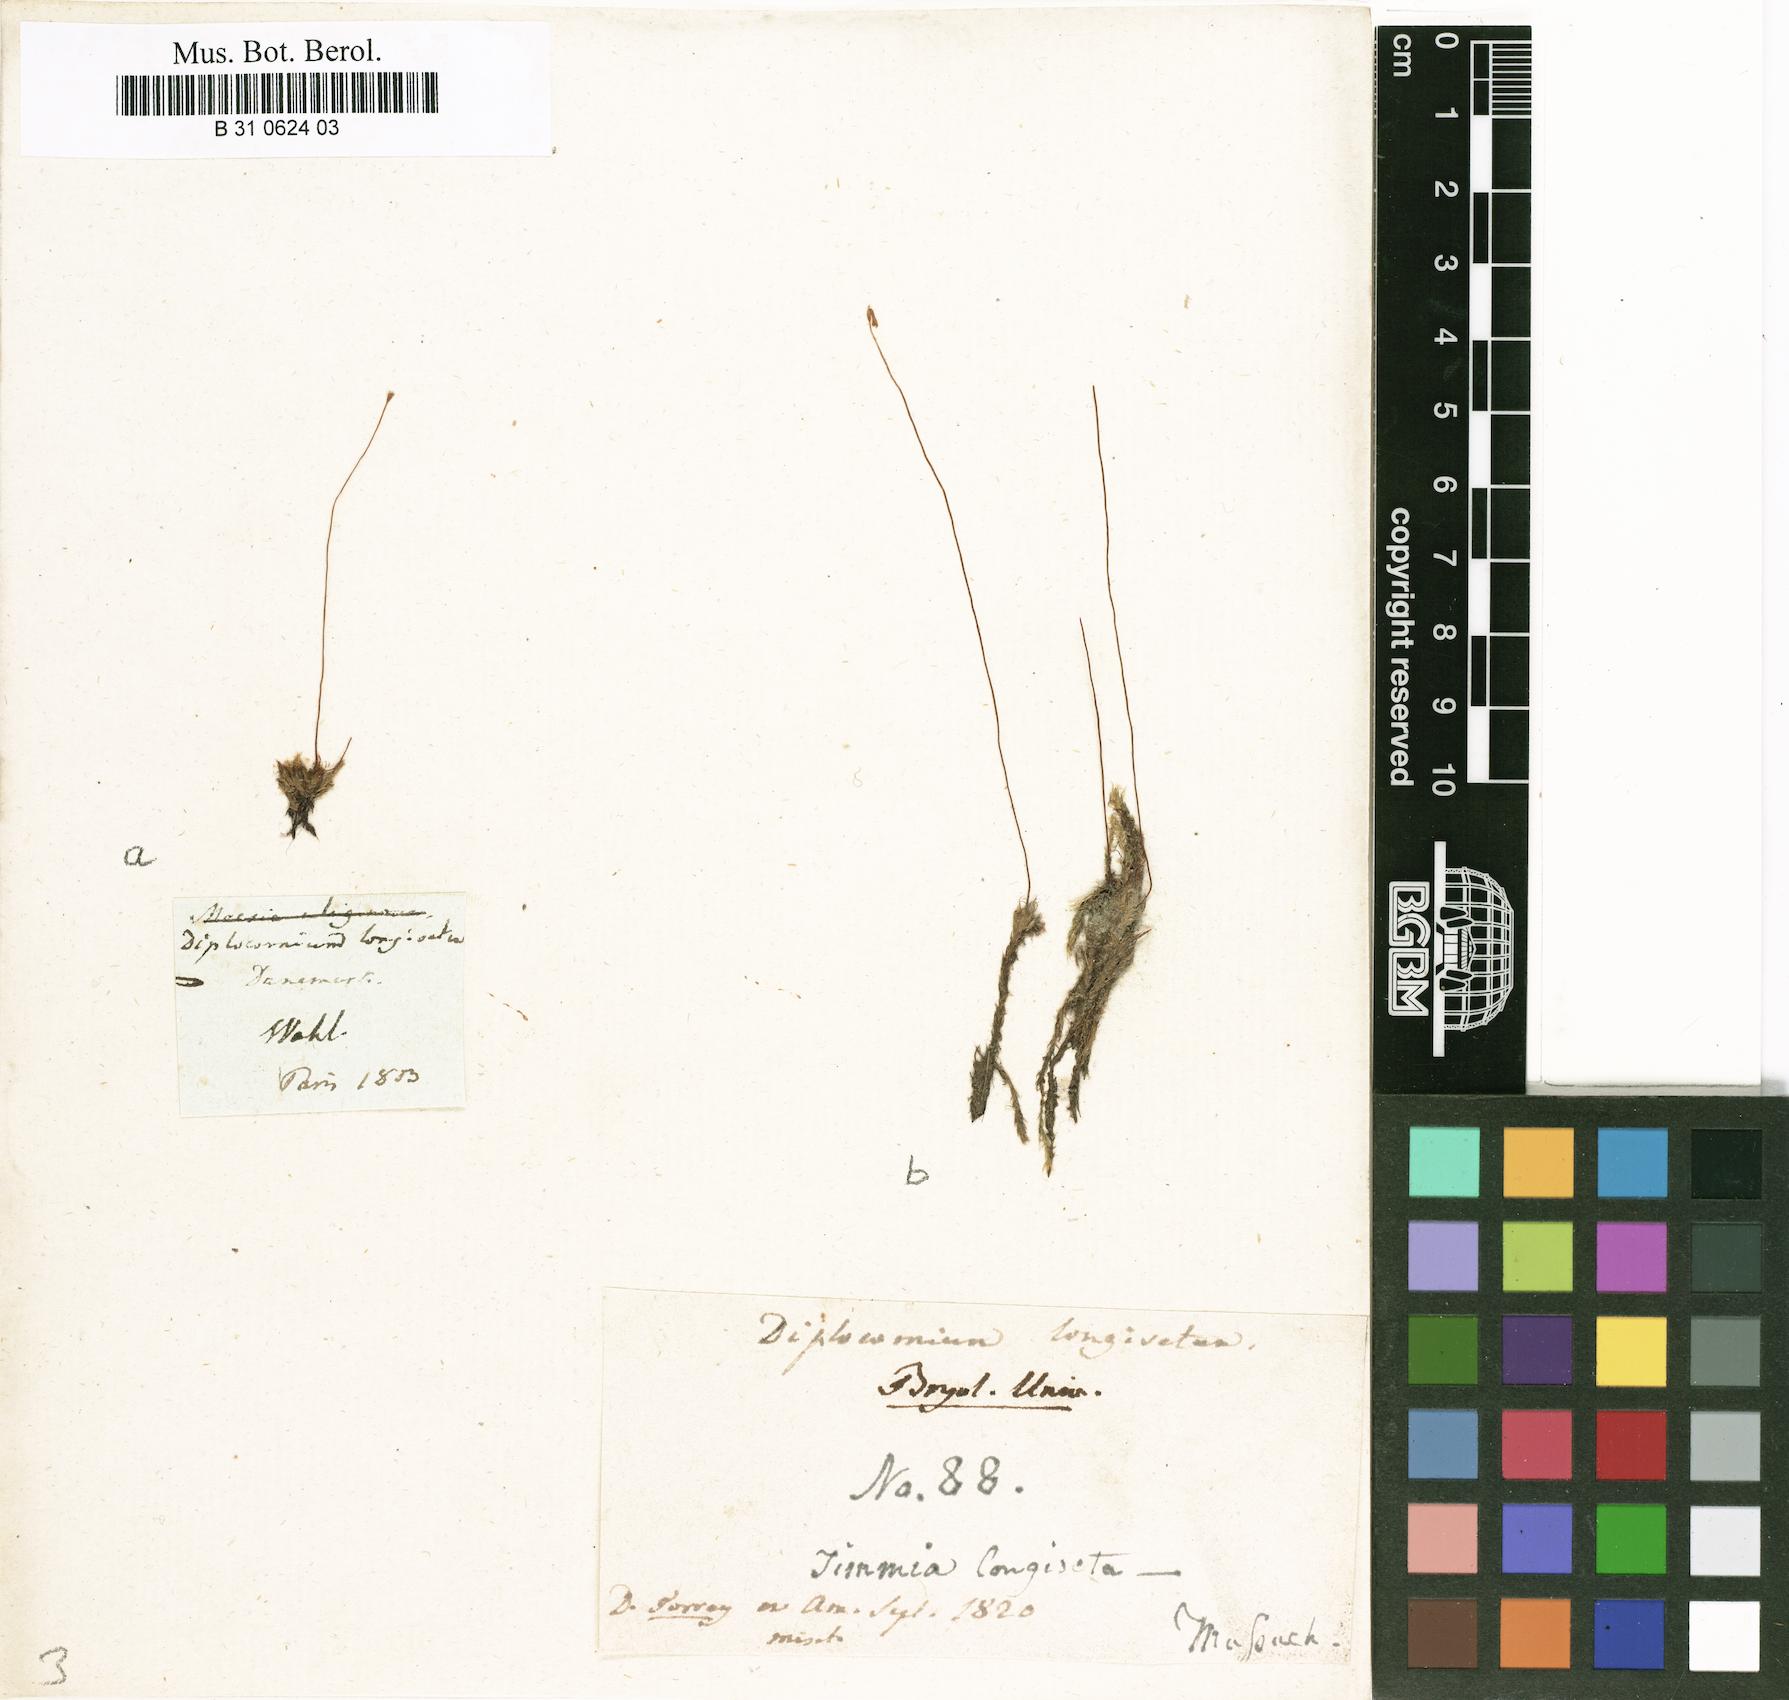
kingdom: Plantae
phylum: Bryophyta
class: Bryopsida
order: Splachnales
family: Meesiaceae
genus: Meesia
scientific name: Meesia longiseta
